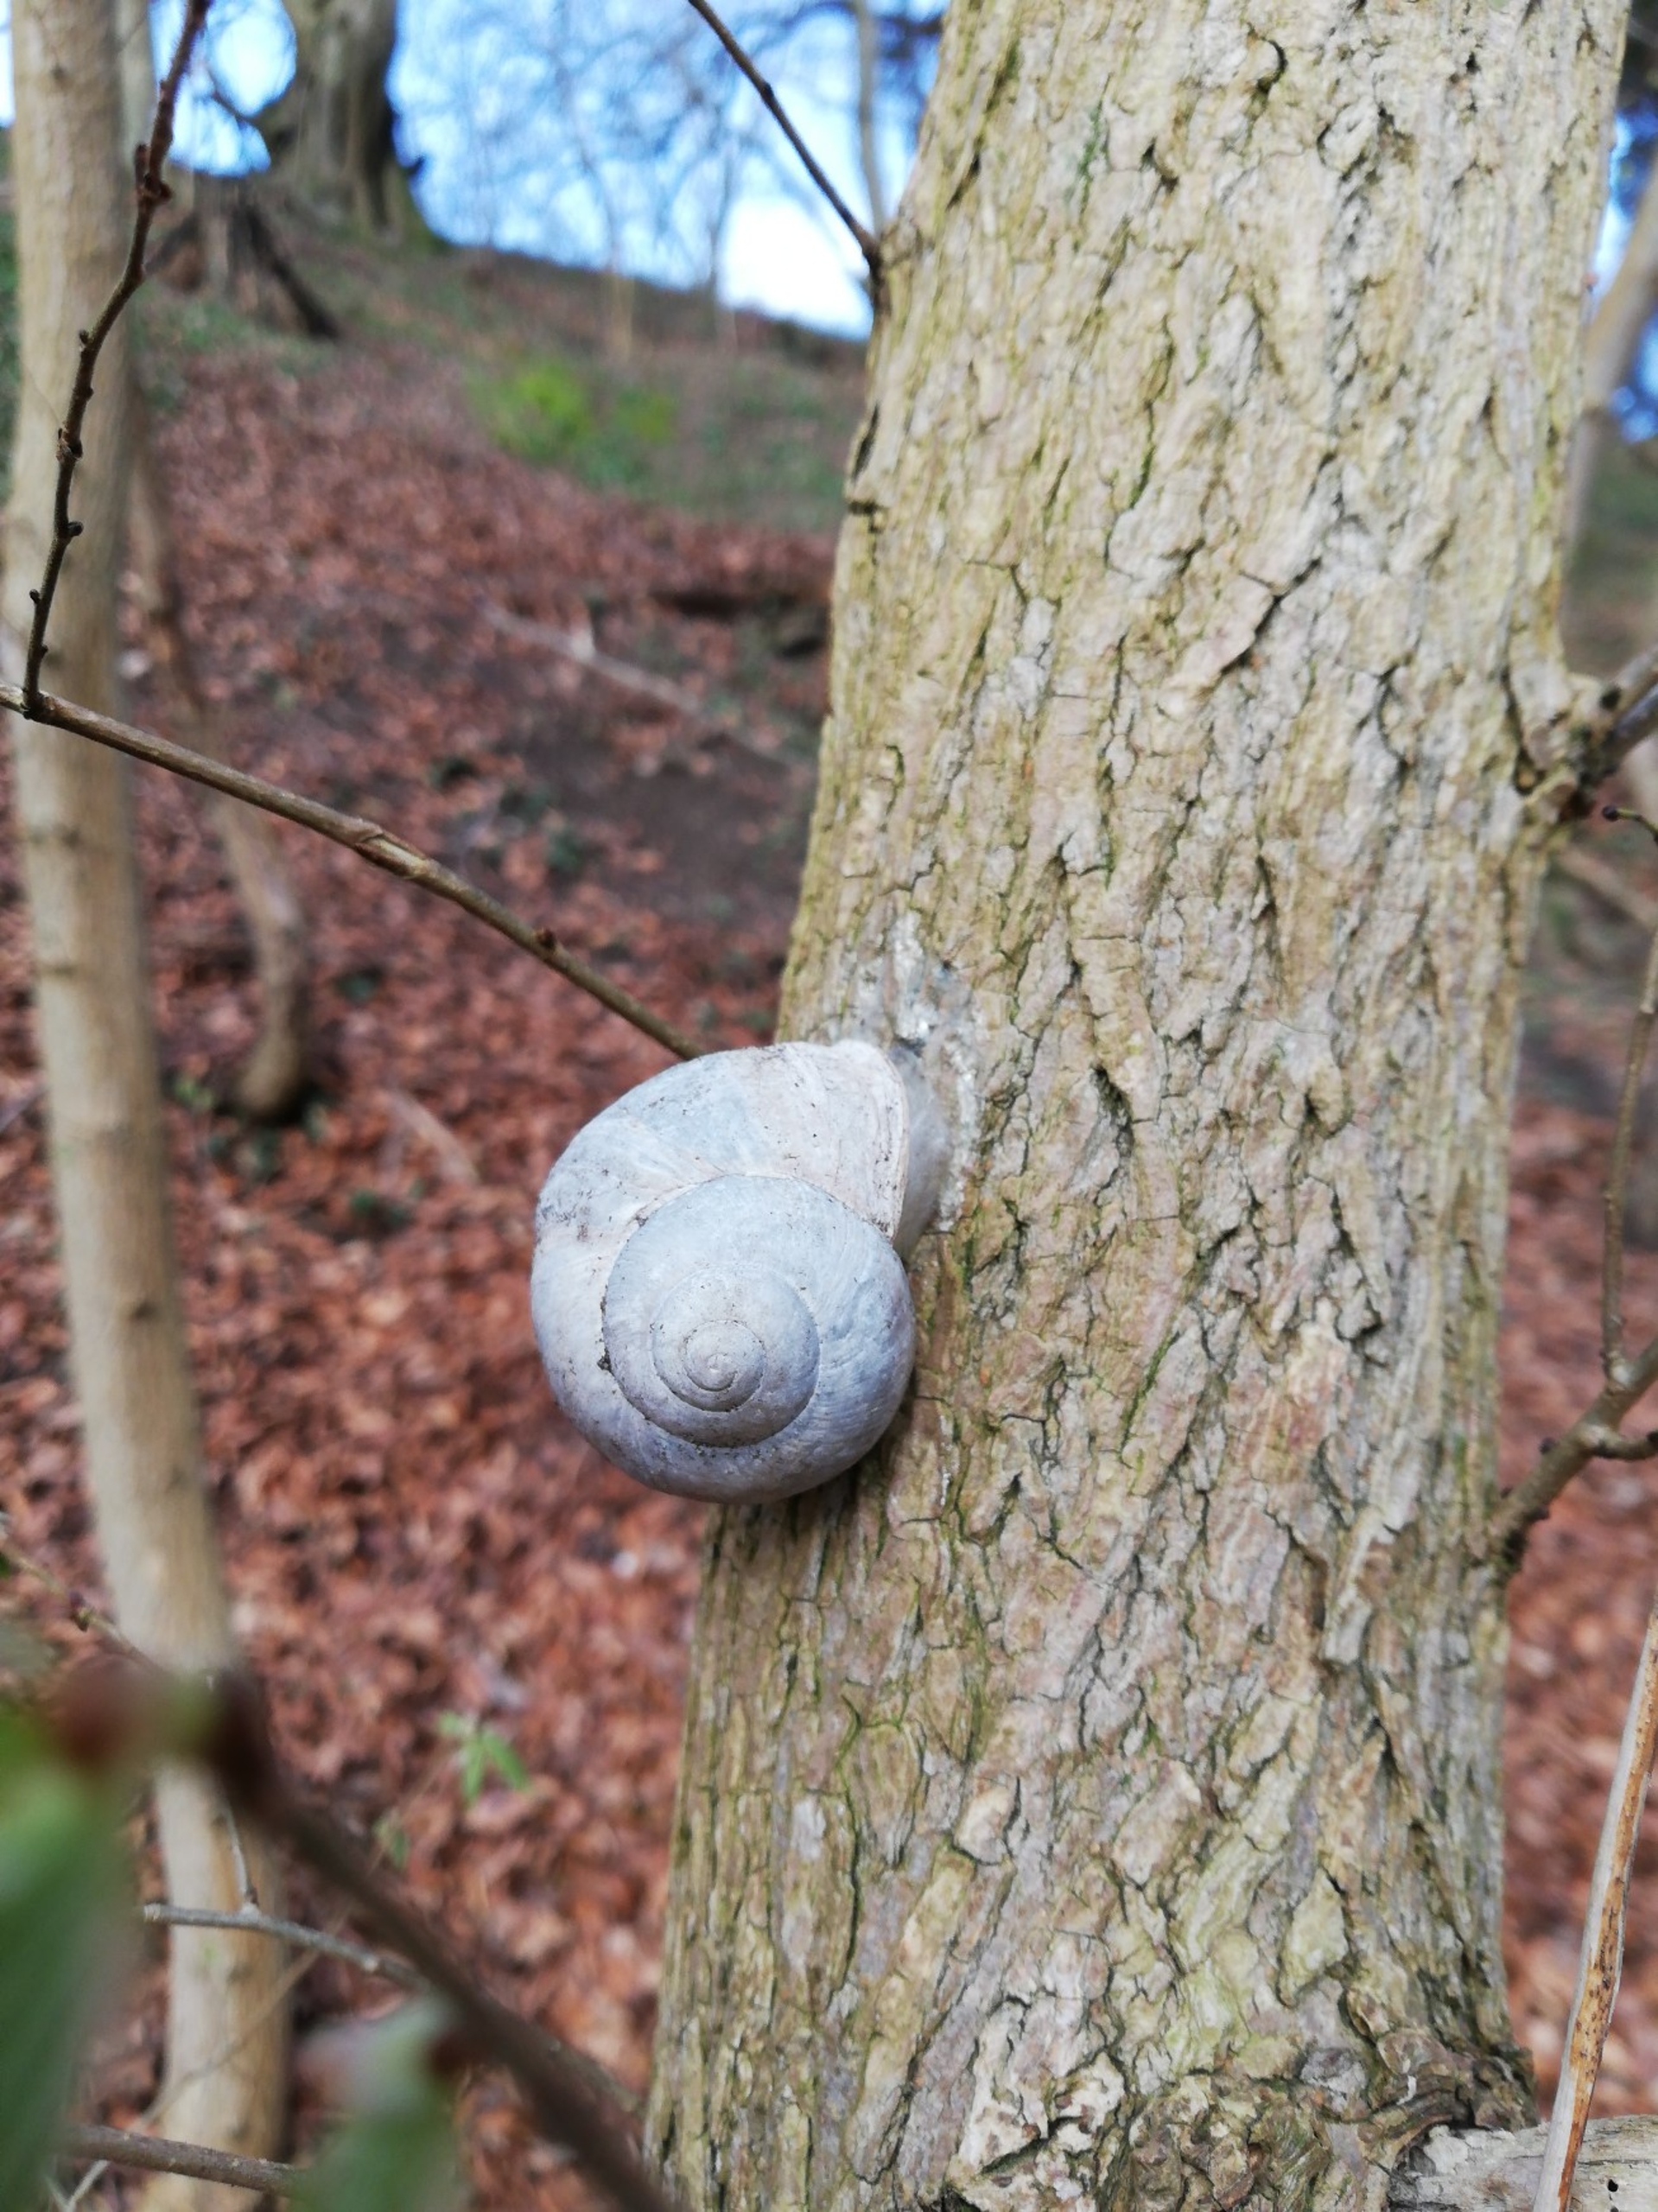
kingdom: Animalia
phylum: Mollusca
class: Gastropoda
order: Stylommatophora
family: Helicidae
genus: Helix
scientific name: Helix pomatia
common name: Vinbjergsnegl
